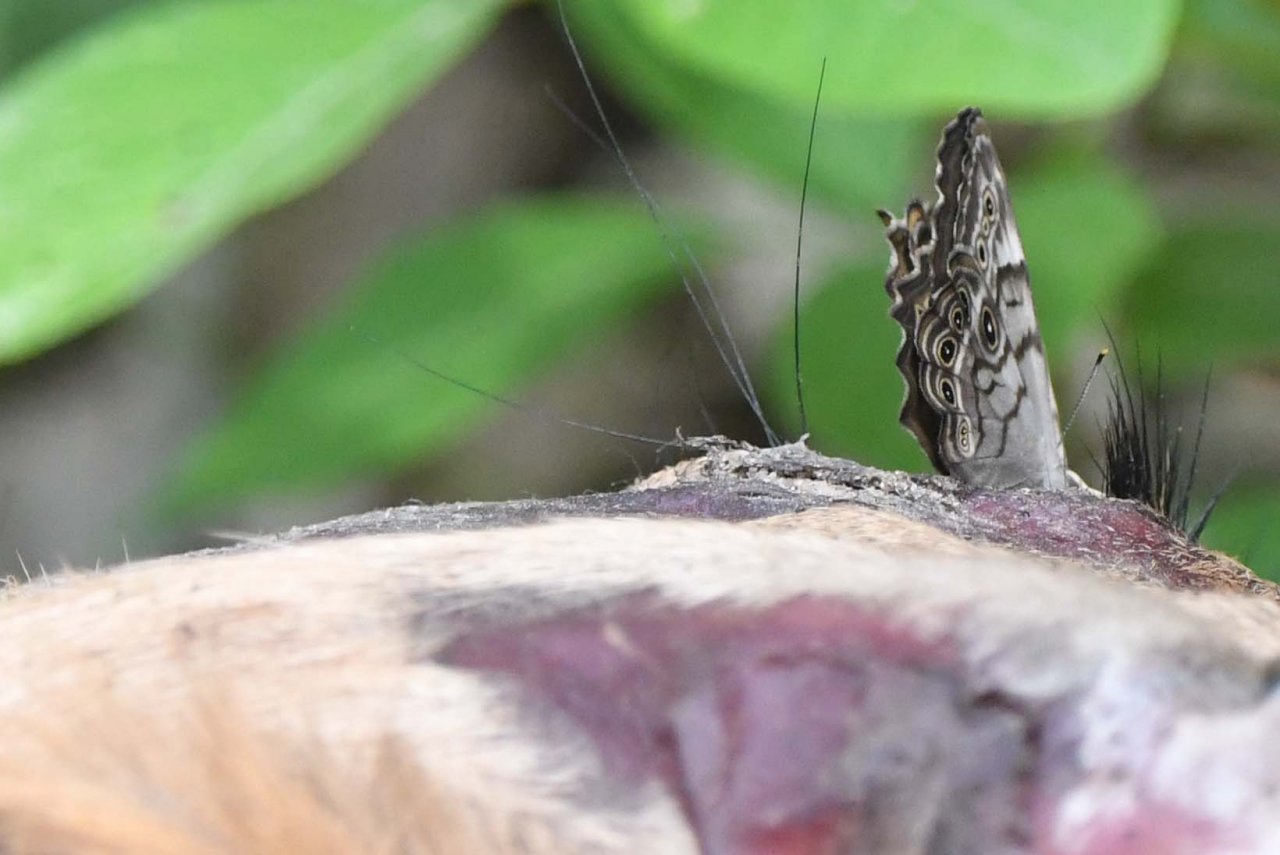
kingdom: Animalia
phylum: Arthropoda
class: Insecta
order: Lepidoptera
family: Nymphalidae
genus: Lethe
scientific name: Lethe anthedon
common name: Northern Pearly-Eye
